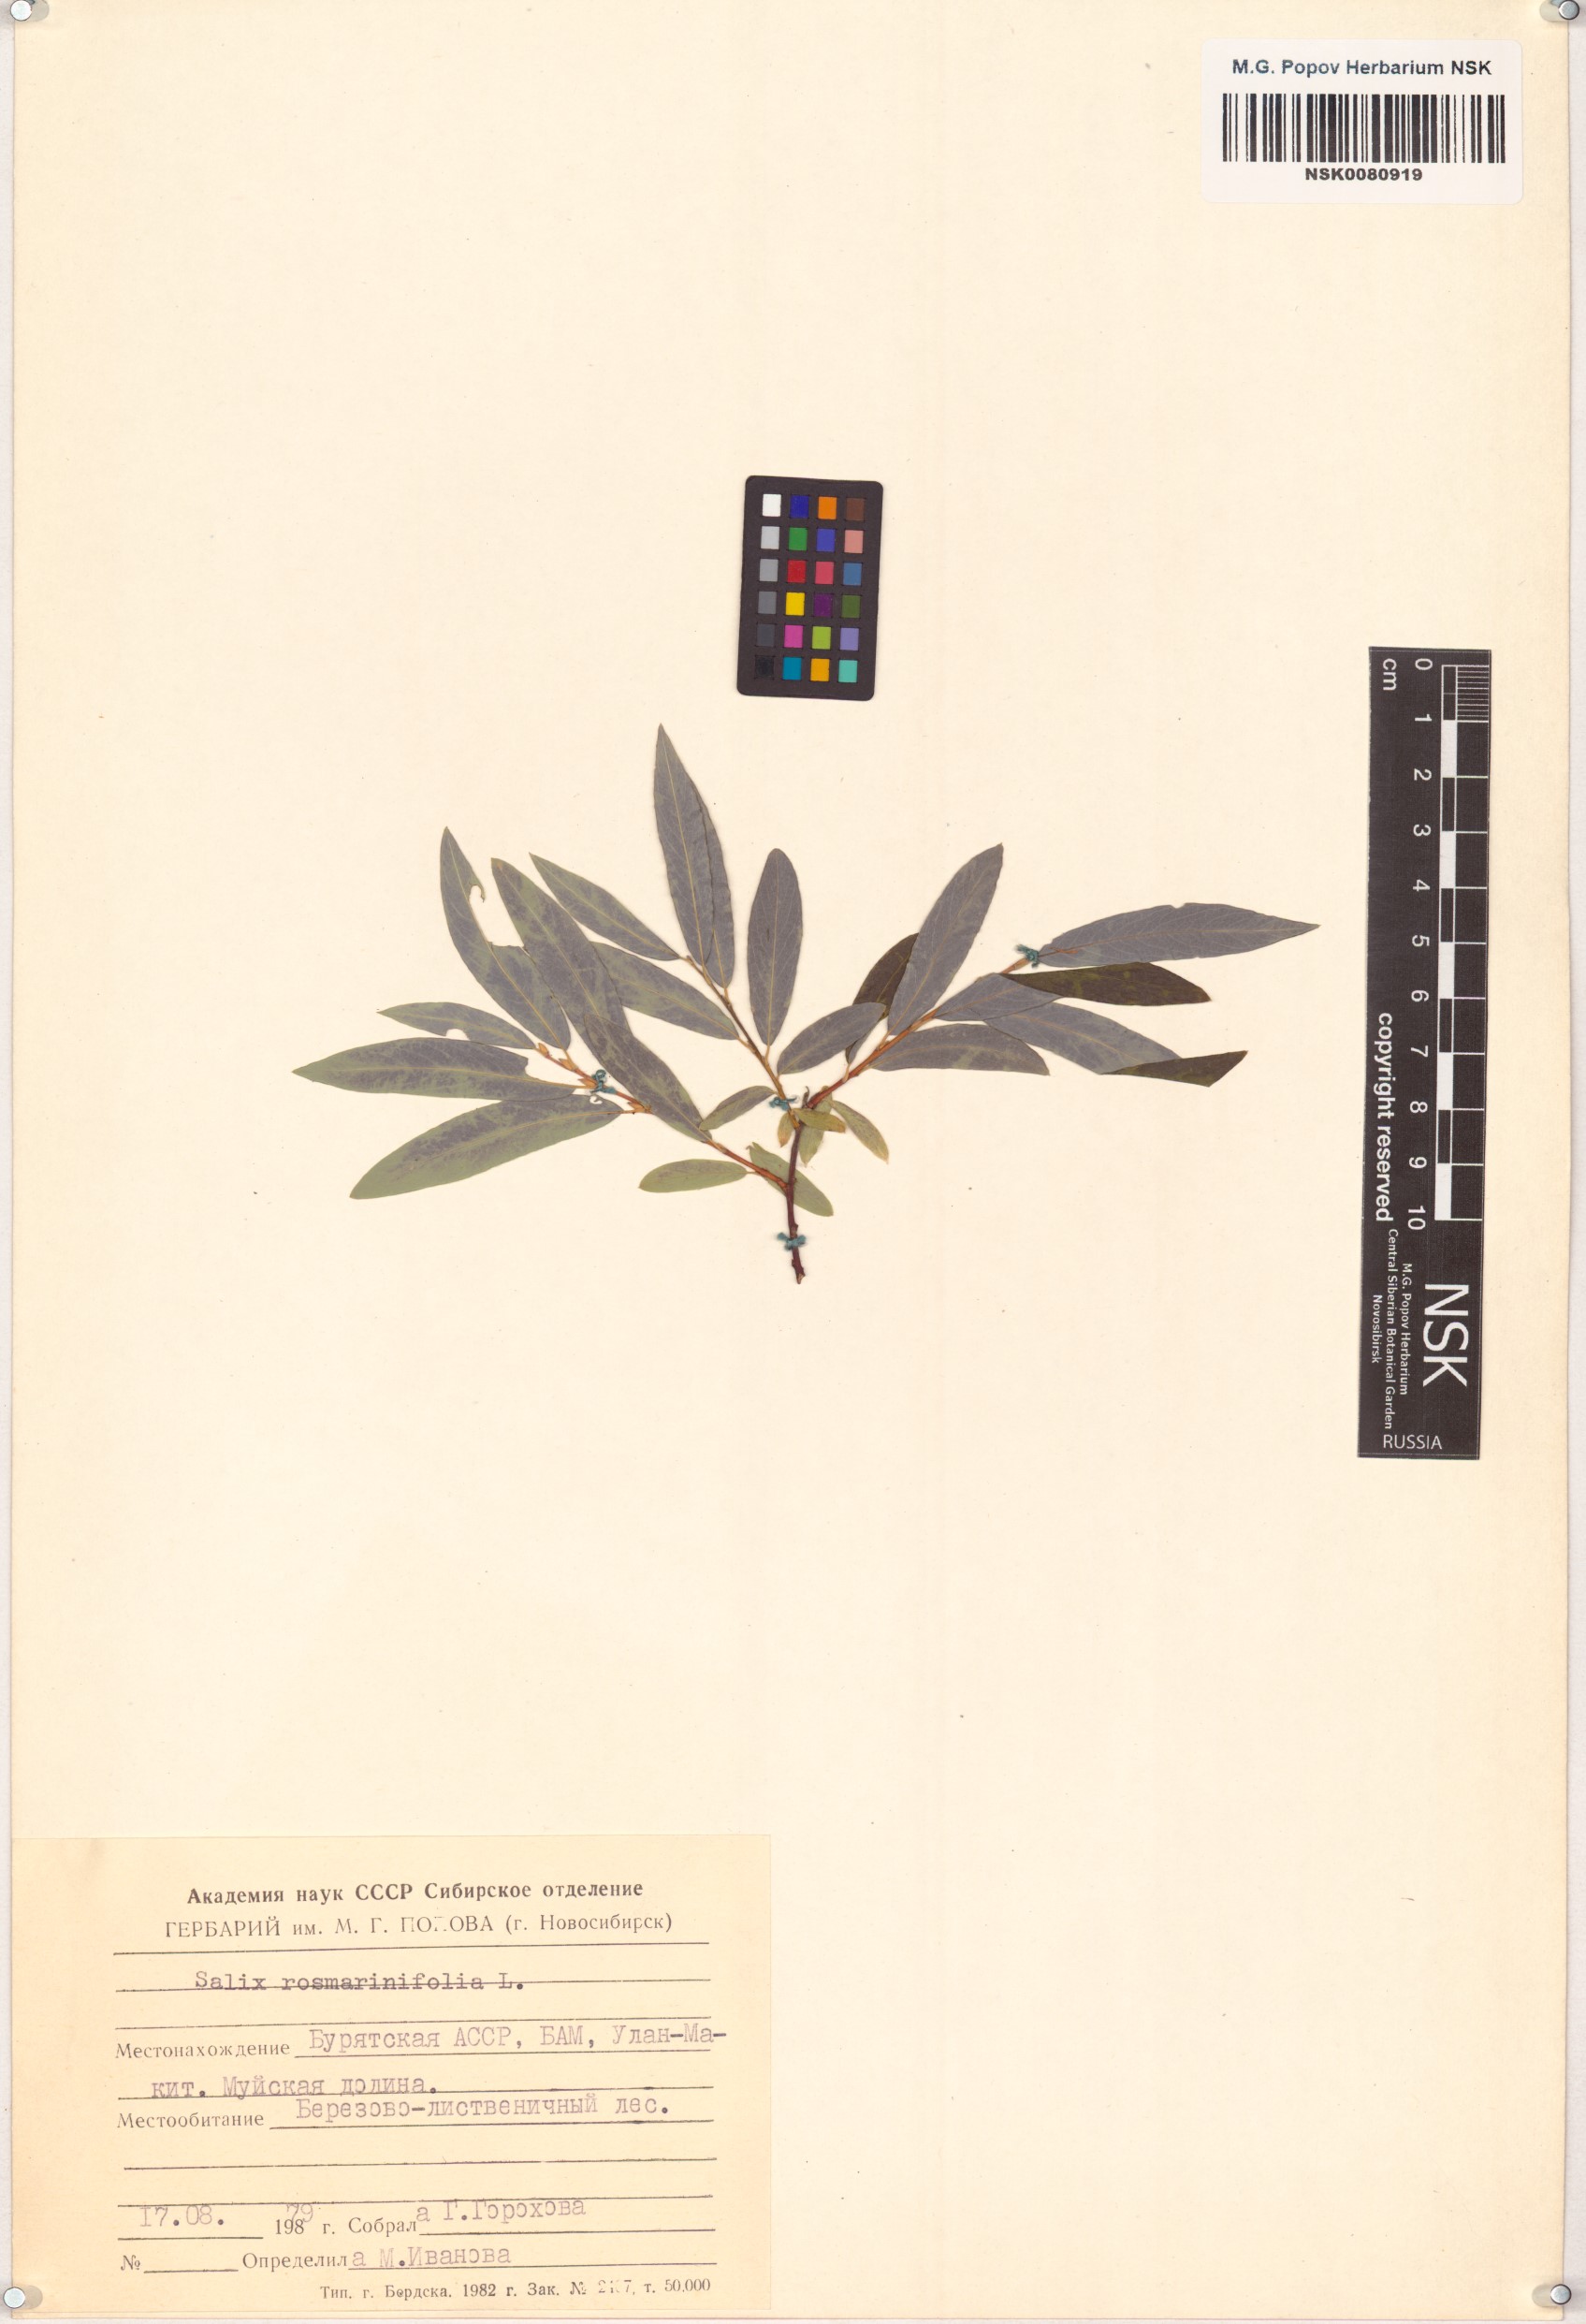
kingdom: Plantae
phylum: Tracheophyta
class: Magnoliopsida
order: Malpighiales
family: Salicaceae
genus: Salix
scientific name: Salix rosmarinifolia
